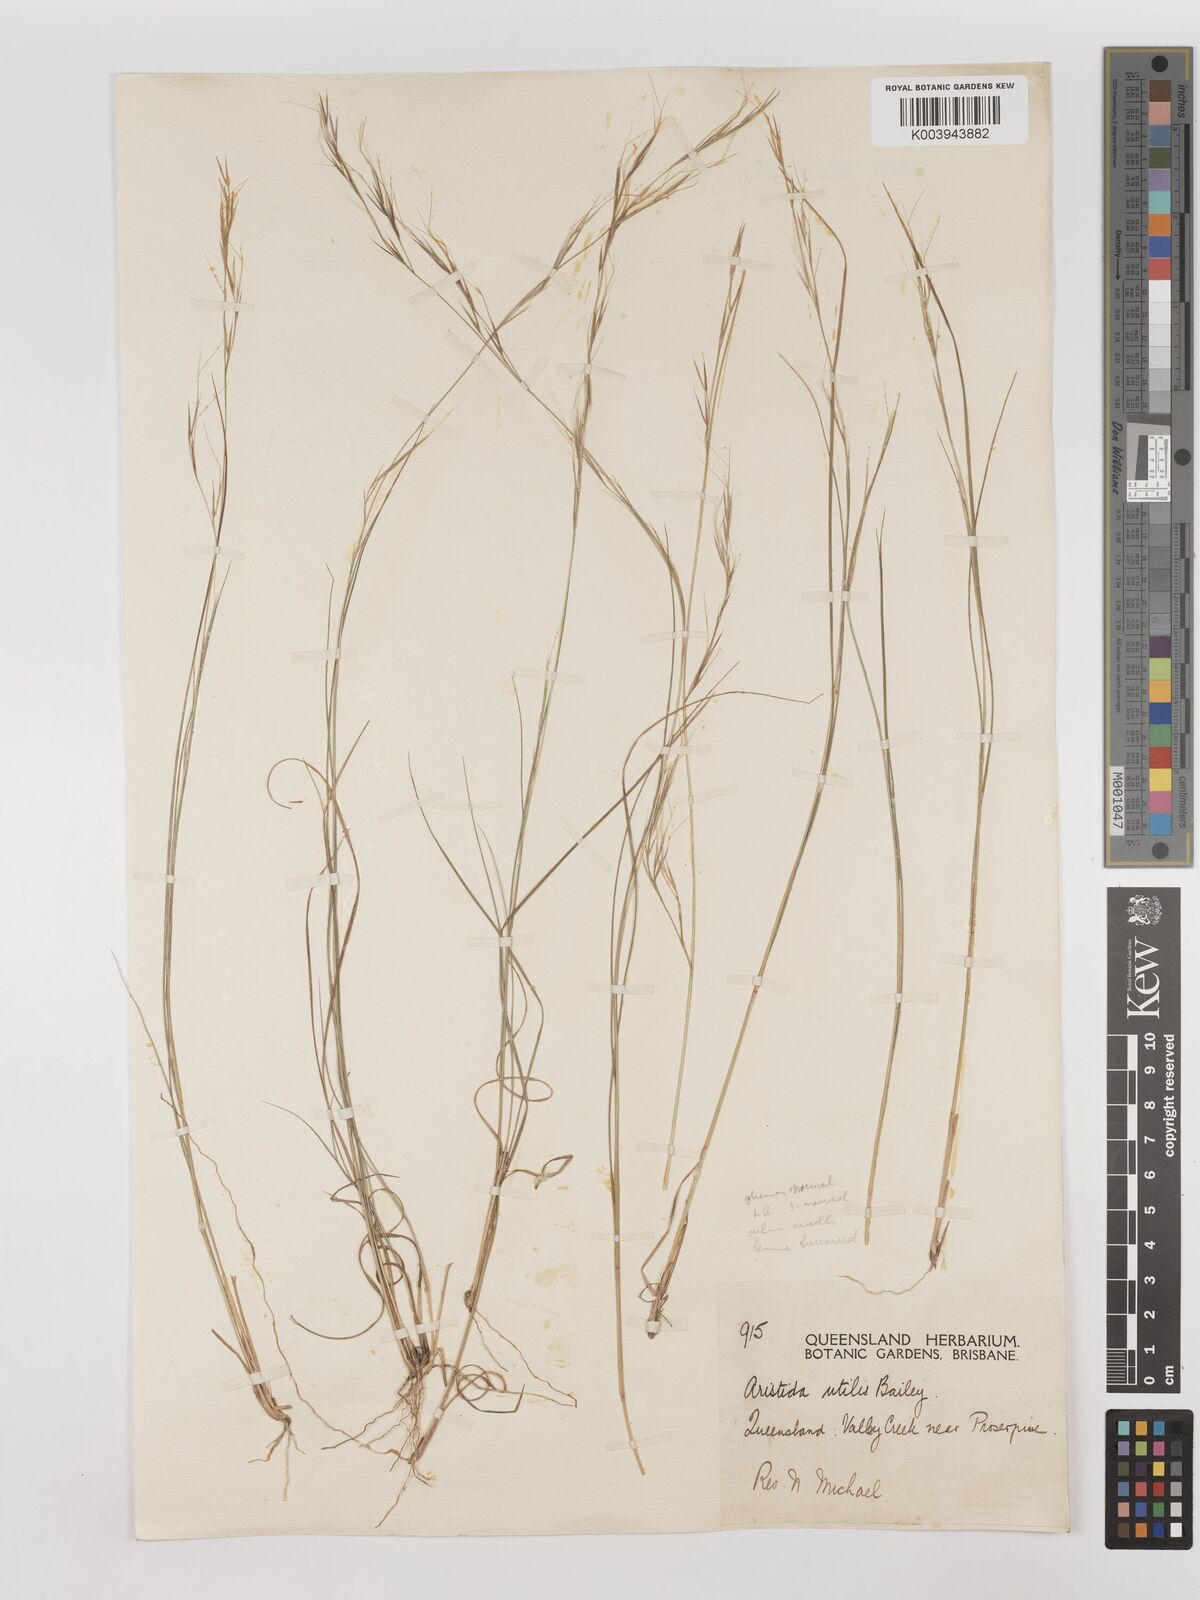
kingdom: Plantae
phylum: Tracheophyta
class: Liliopsida
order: Poales
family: Poaceae
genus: Aristida
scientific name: Aristida utilis
